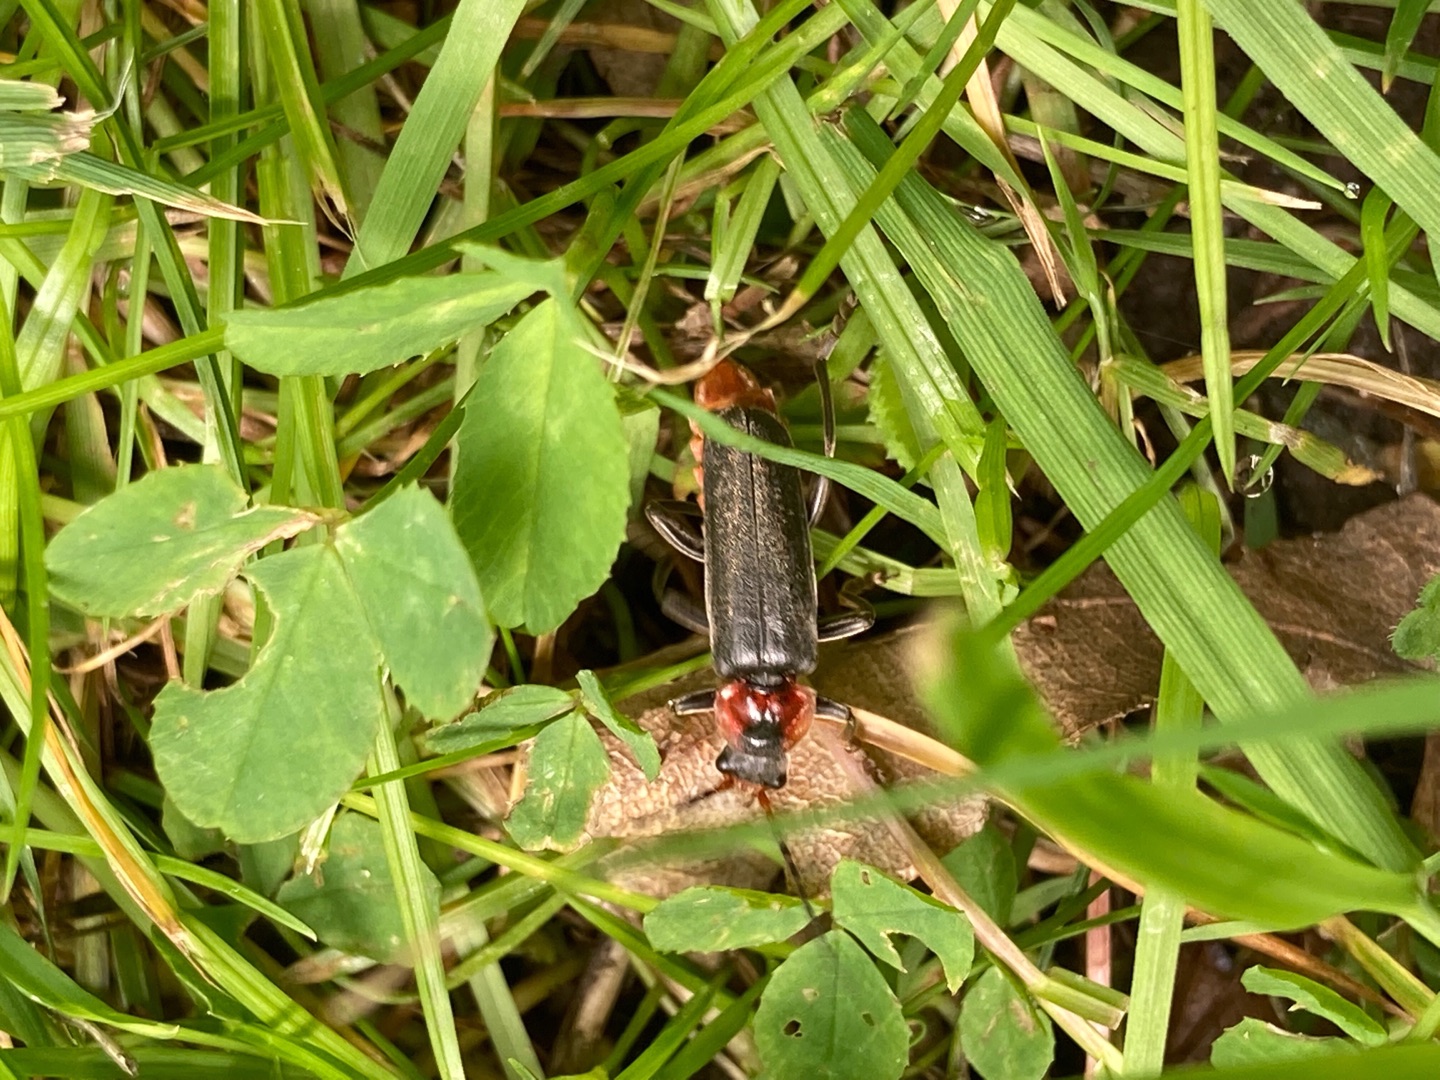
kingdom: Animalia
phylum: Arthropoda
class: Insecta
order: Coleoptera
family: Cantharidae
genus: Cantharis
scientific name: Cantharis fusca
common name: Stor blødvinge
